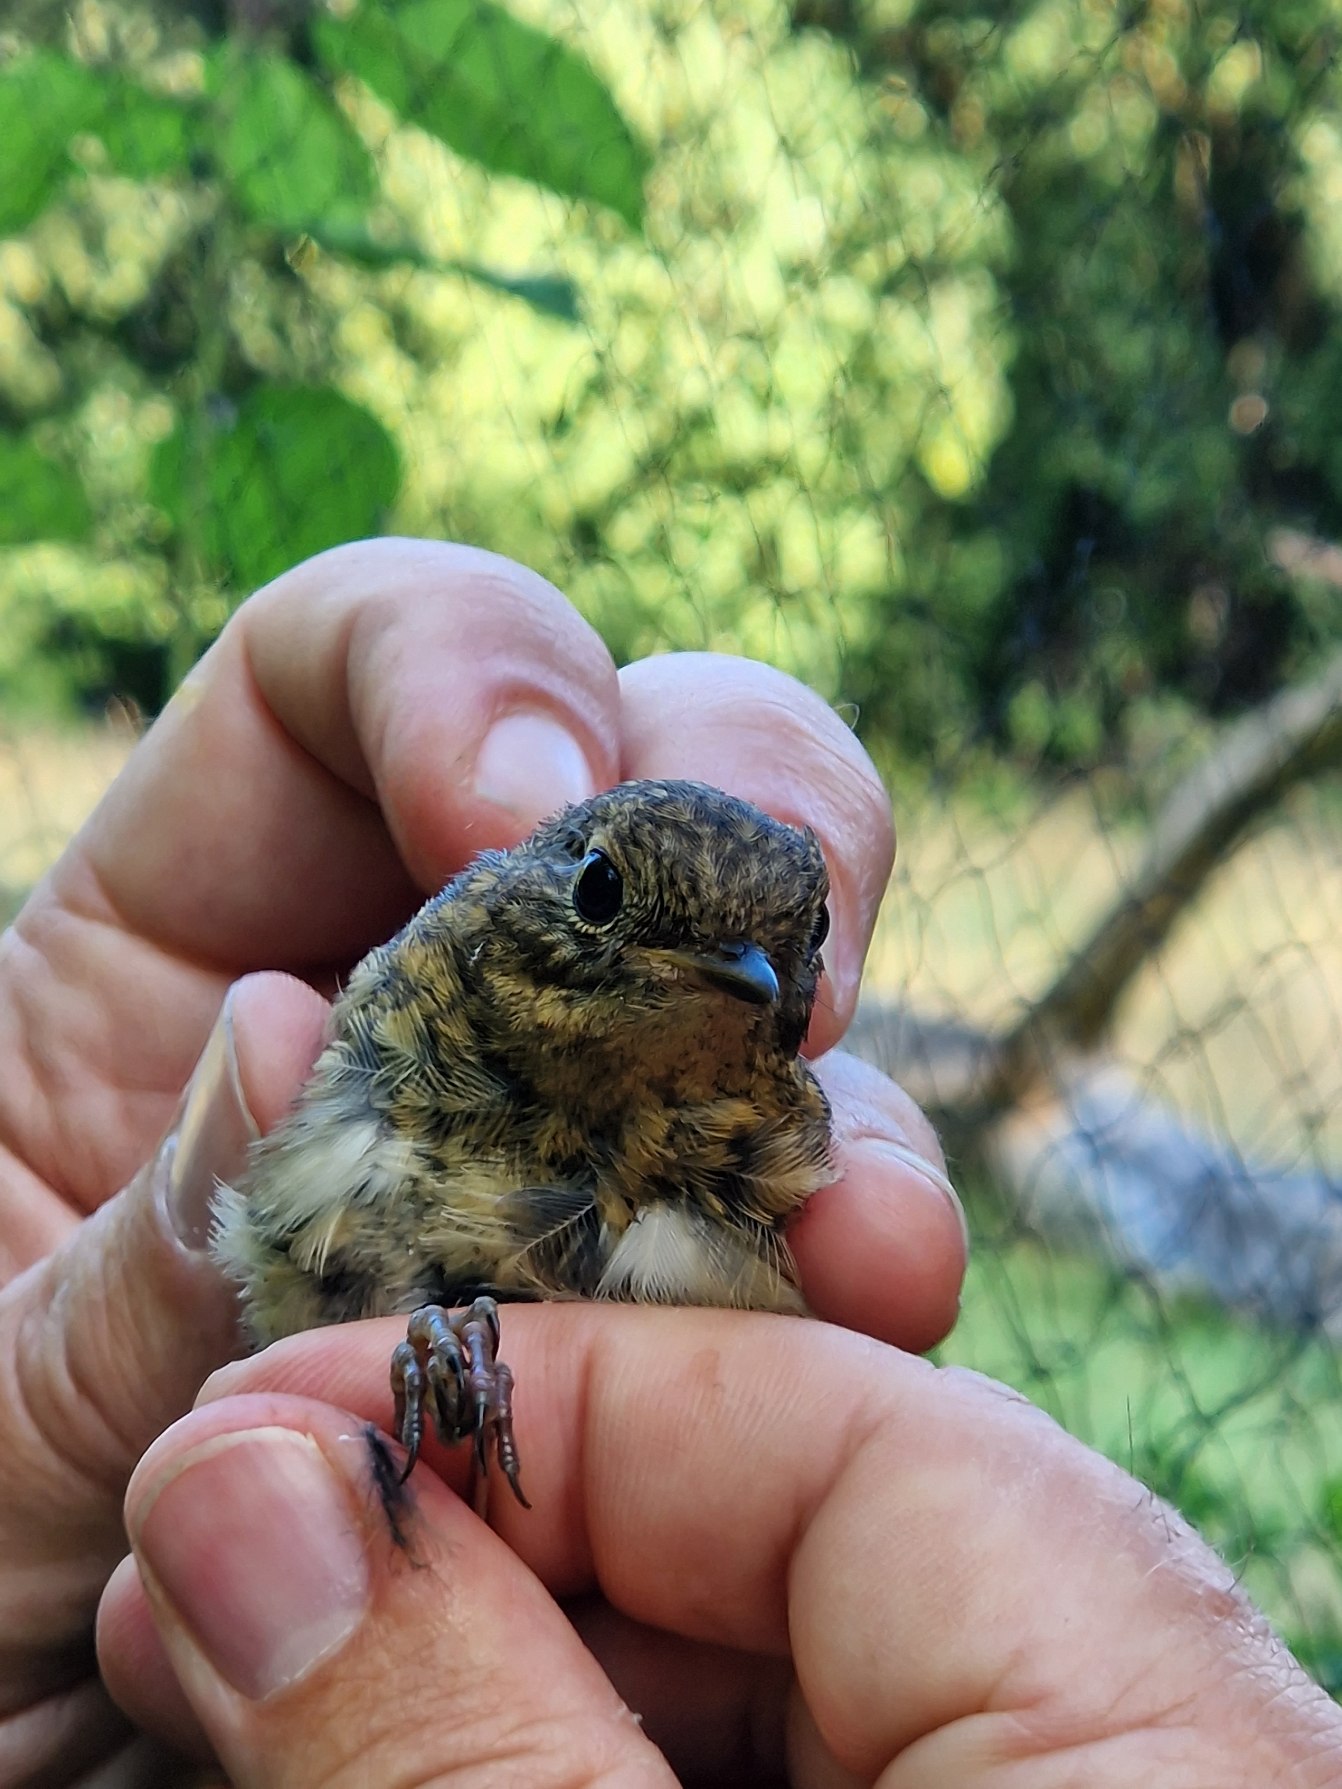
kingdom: Animalia
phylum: Chordata
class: Aves
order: Passeriformes
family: Muscicapidae
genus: Erithacus
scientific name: Erithacus rubecula
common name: Rødhals/rødkælk
